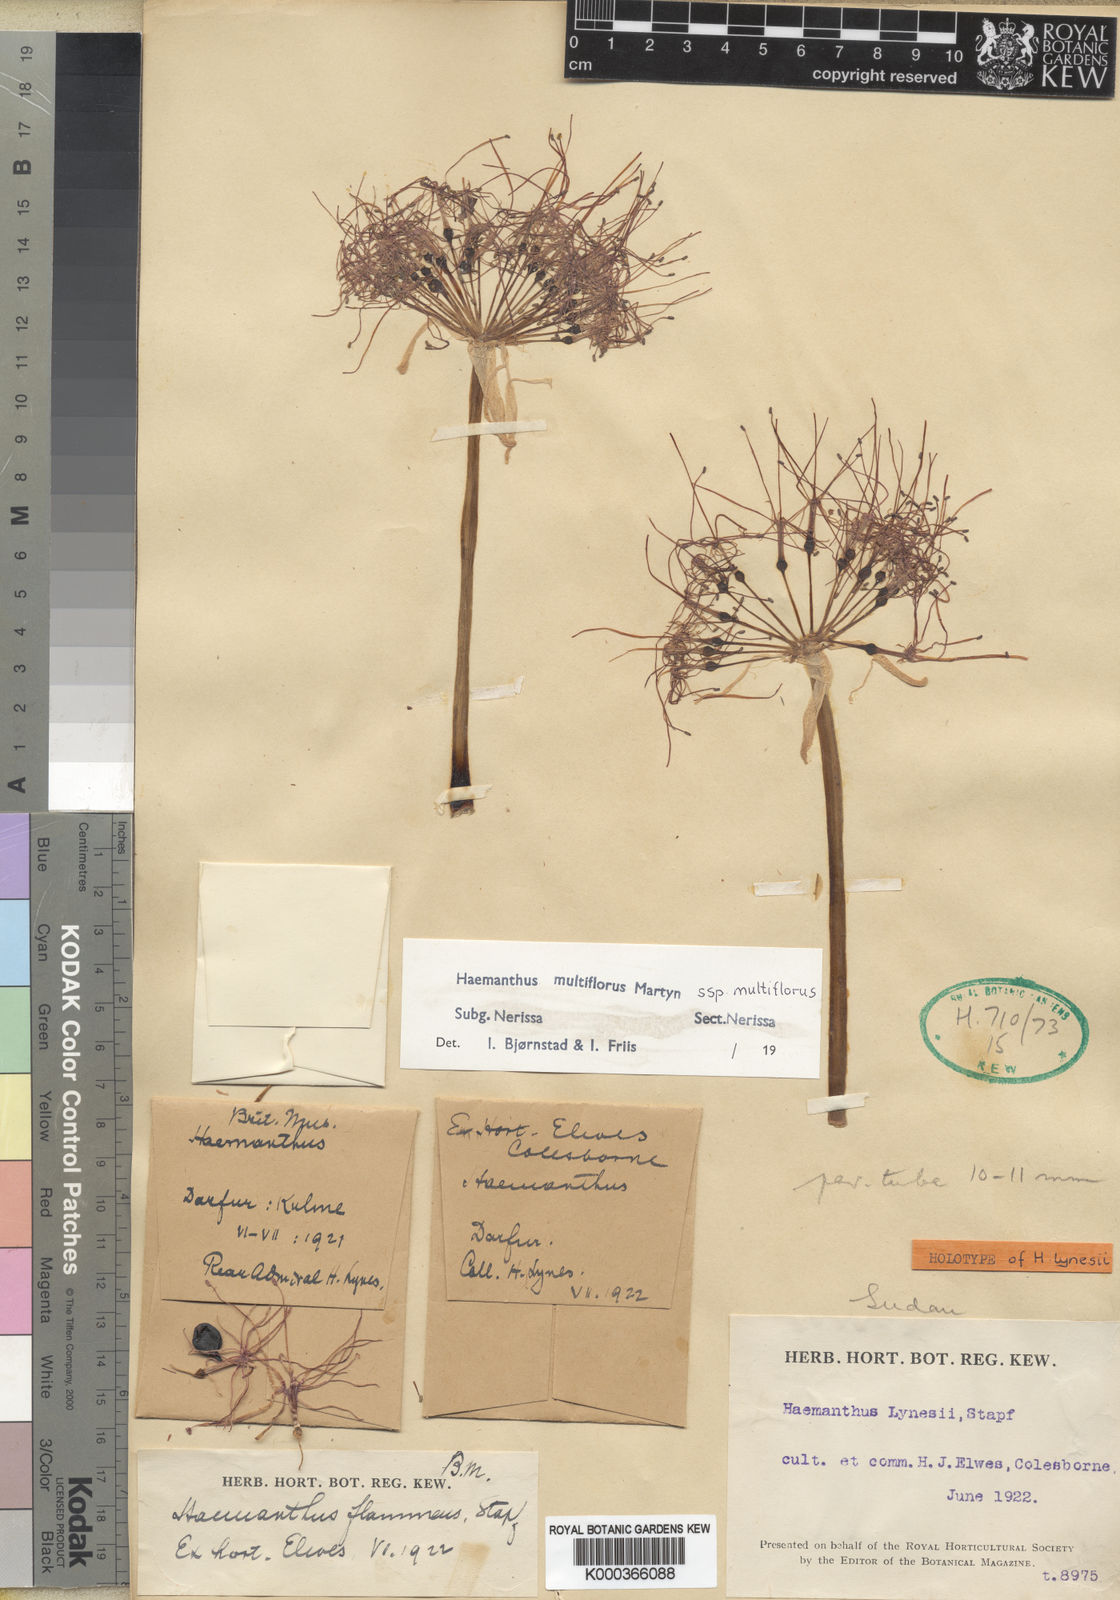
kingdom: Plantae
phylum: Tracheophyta
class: Liliopsida
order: Asparagales
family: Amaryllidaceae
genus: Scadoxus
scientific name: Scadoxus multiflorus
